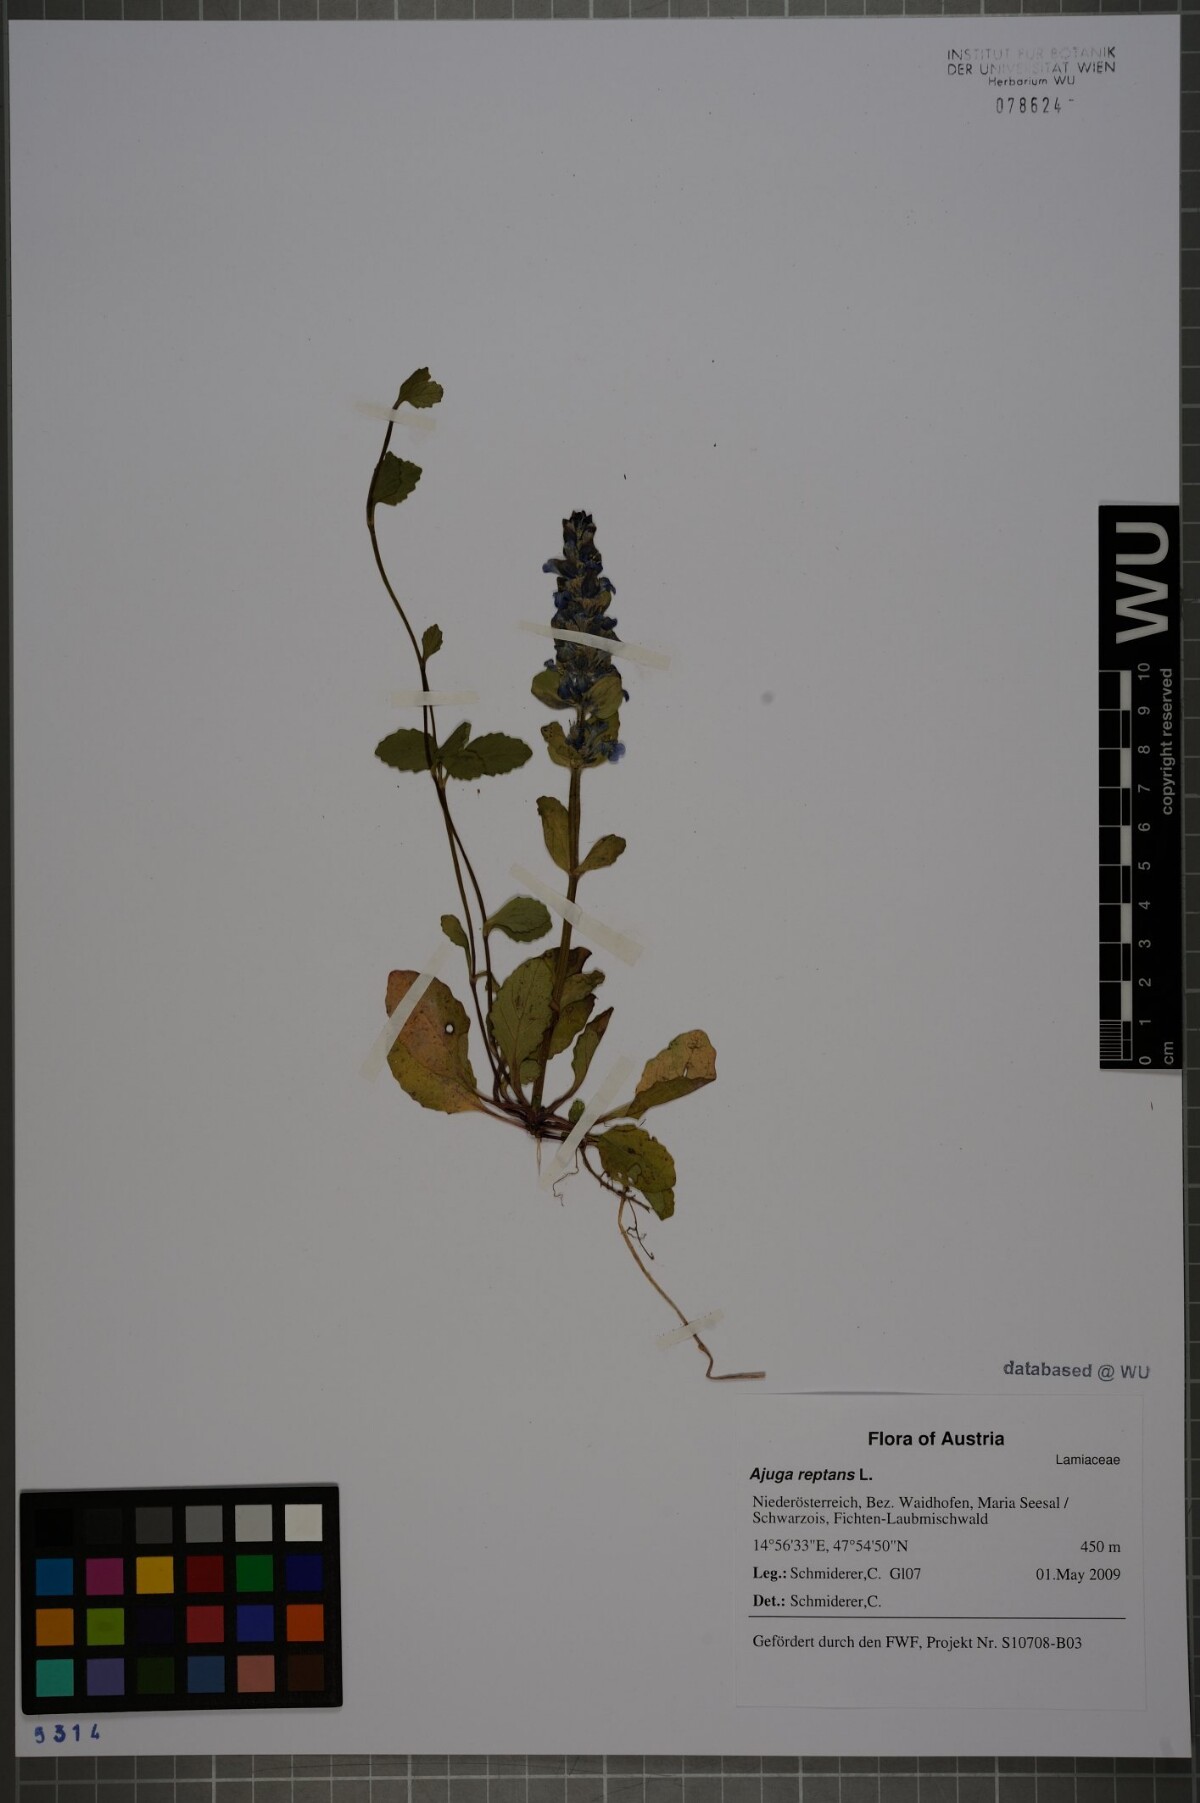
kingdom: Plantae
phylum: Tracheophyta
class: Magnoliopsida
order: Lamiales
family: Lamiaceae
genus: Ajuga
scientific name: Ajuga reptans
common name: Bugle
